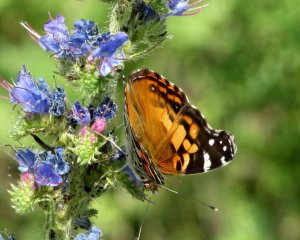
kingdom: Animalia
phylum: Arthropoda
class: Insecta
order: Lepidoptera
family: Nymphalidae
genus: Vanessa
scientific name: Vanessa virginiensis
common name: American Lady
